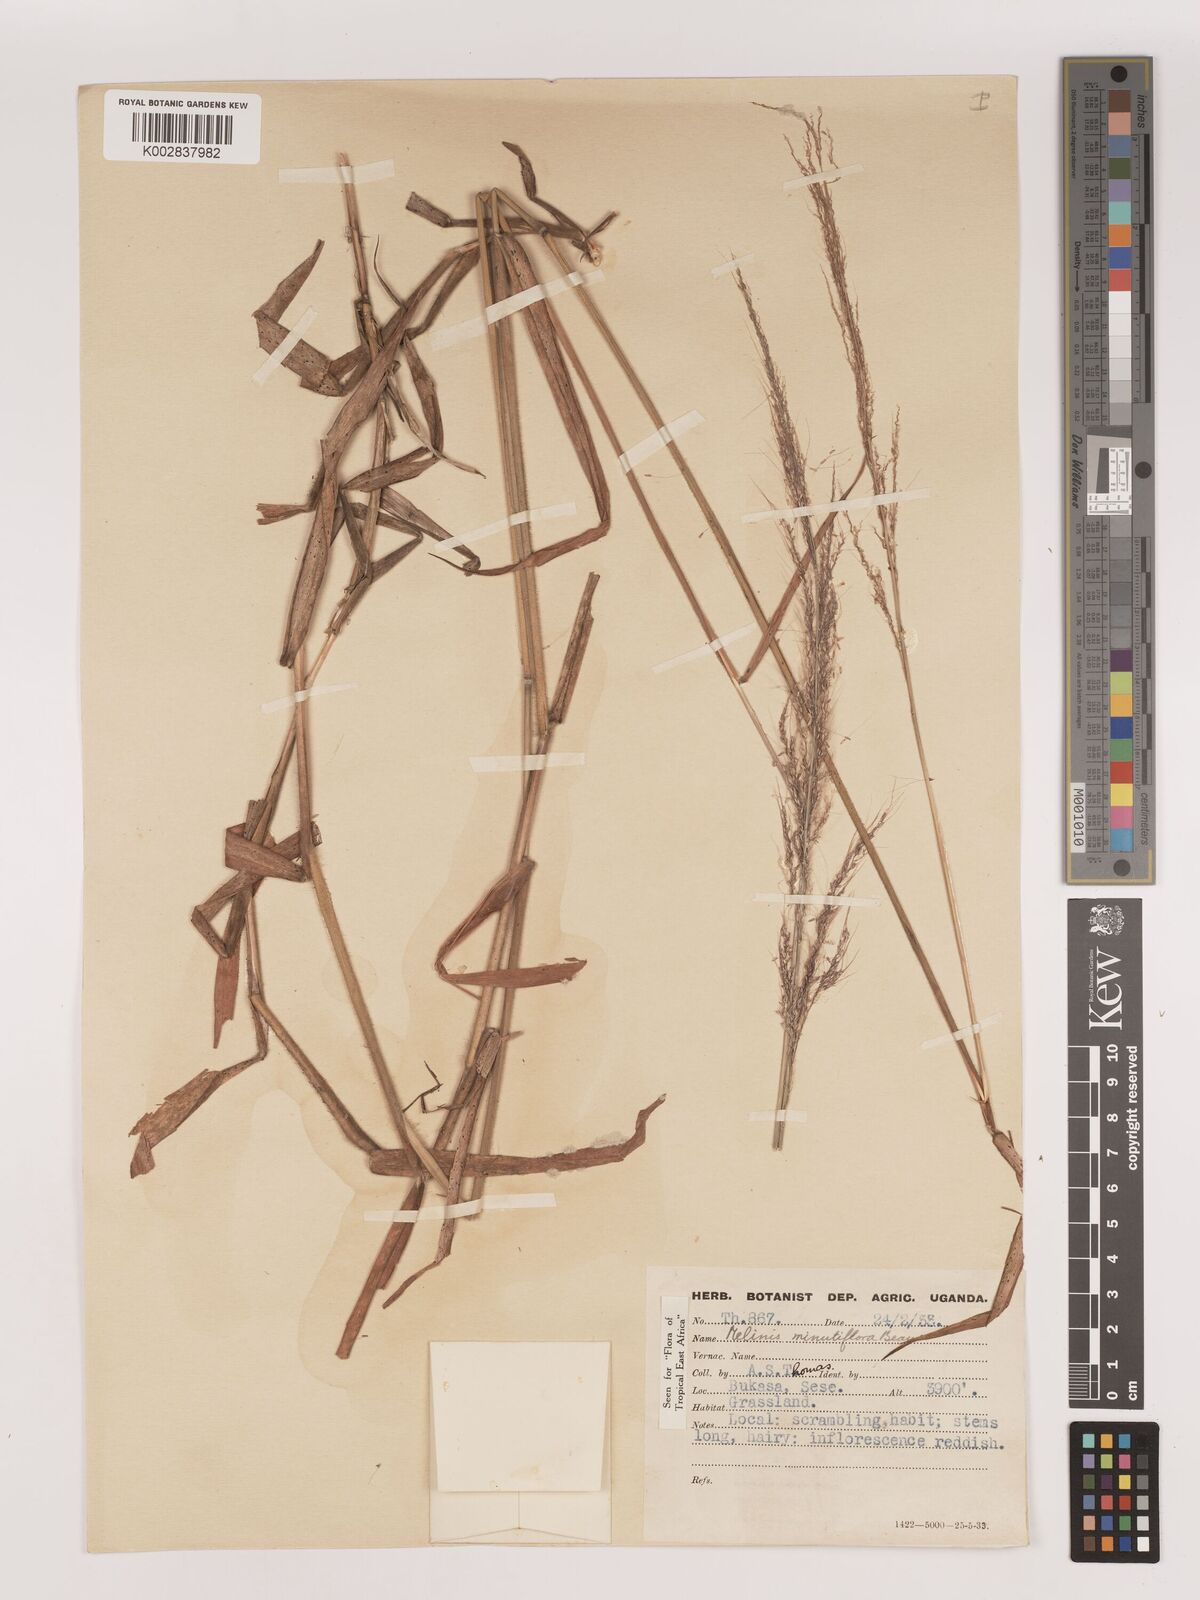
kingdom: Plantae
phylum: Tracheophyta
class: Liliopsida
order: Poales
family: Poaceae
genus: Melinis
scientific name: Melinis minutiflora
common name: Molassesgrass
